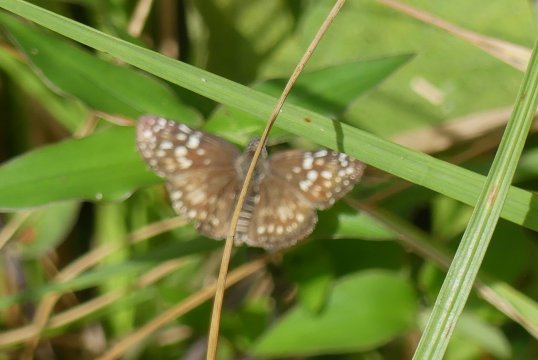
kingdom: Animalia
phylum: Arthropoda
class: Insecta
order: Lepidoptera
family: Hesperiidae
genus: Pyrgus
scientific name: Pyrgus oileus
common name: Orcus Checkered-Skipper
